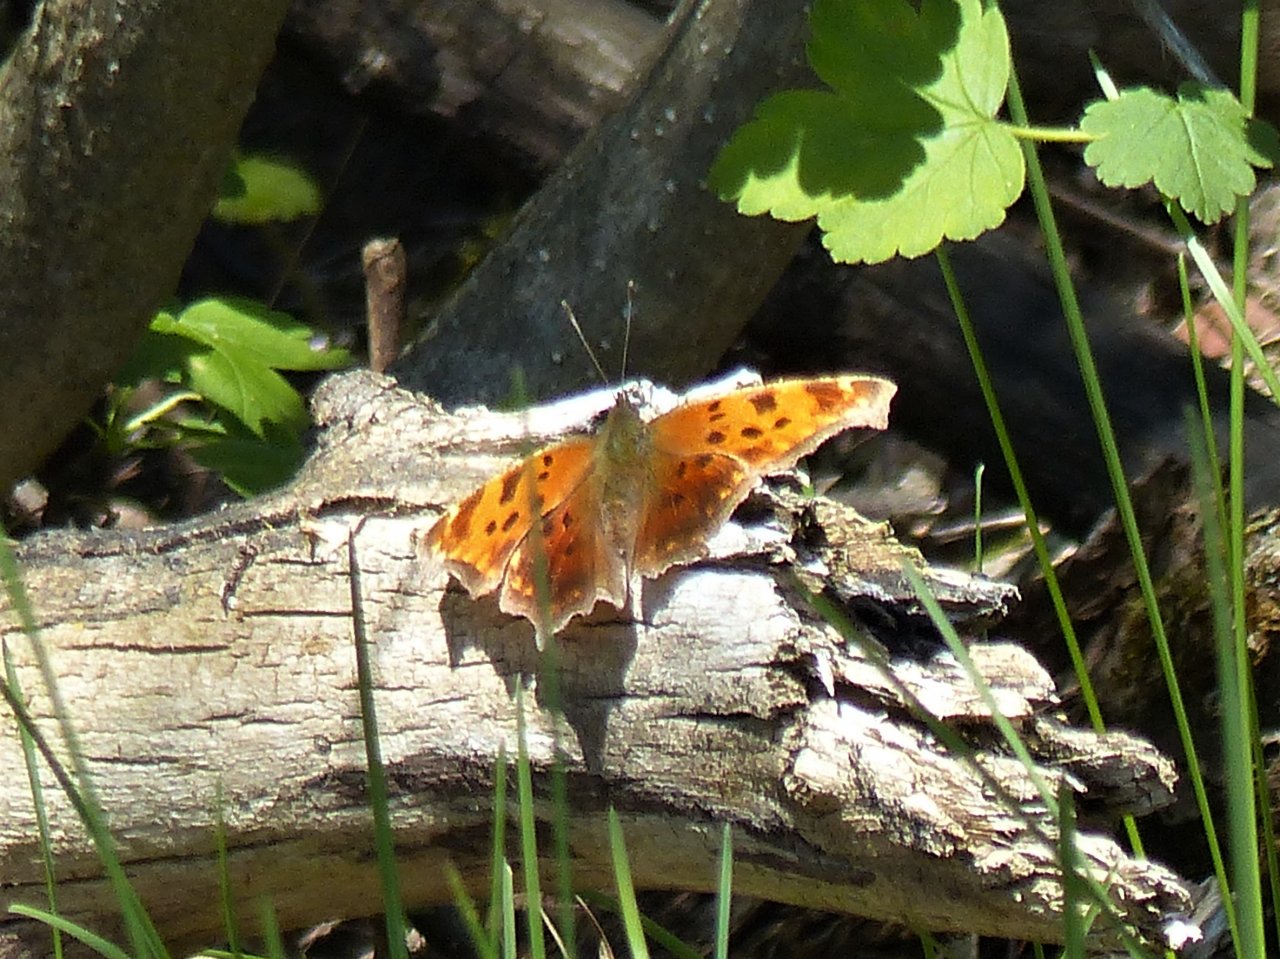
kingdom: Animalia
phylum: Arthropoda
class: Insecta
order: Lepidoptera
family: Nymphalidae
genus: Polygonia
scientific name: Polygonia comma
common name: Eastern Comma
